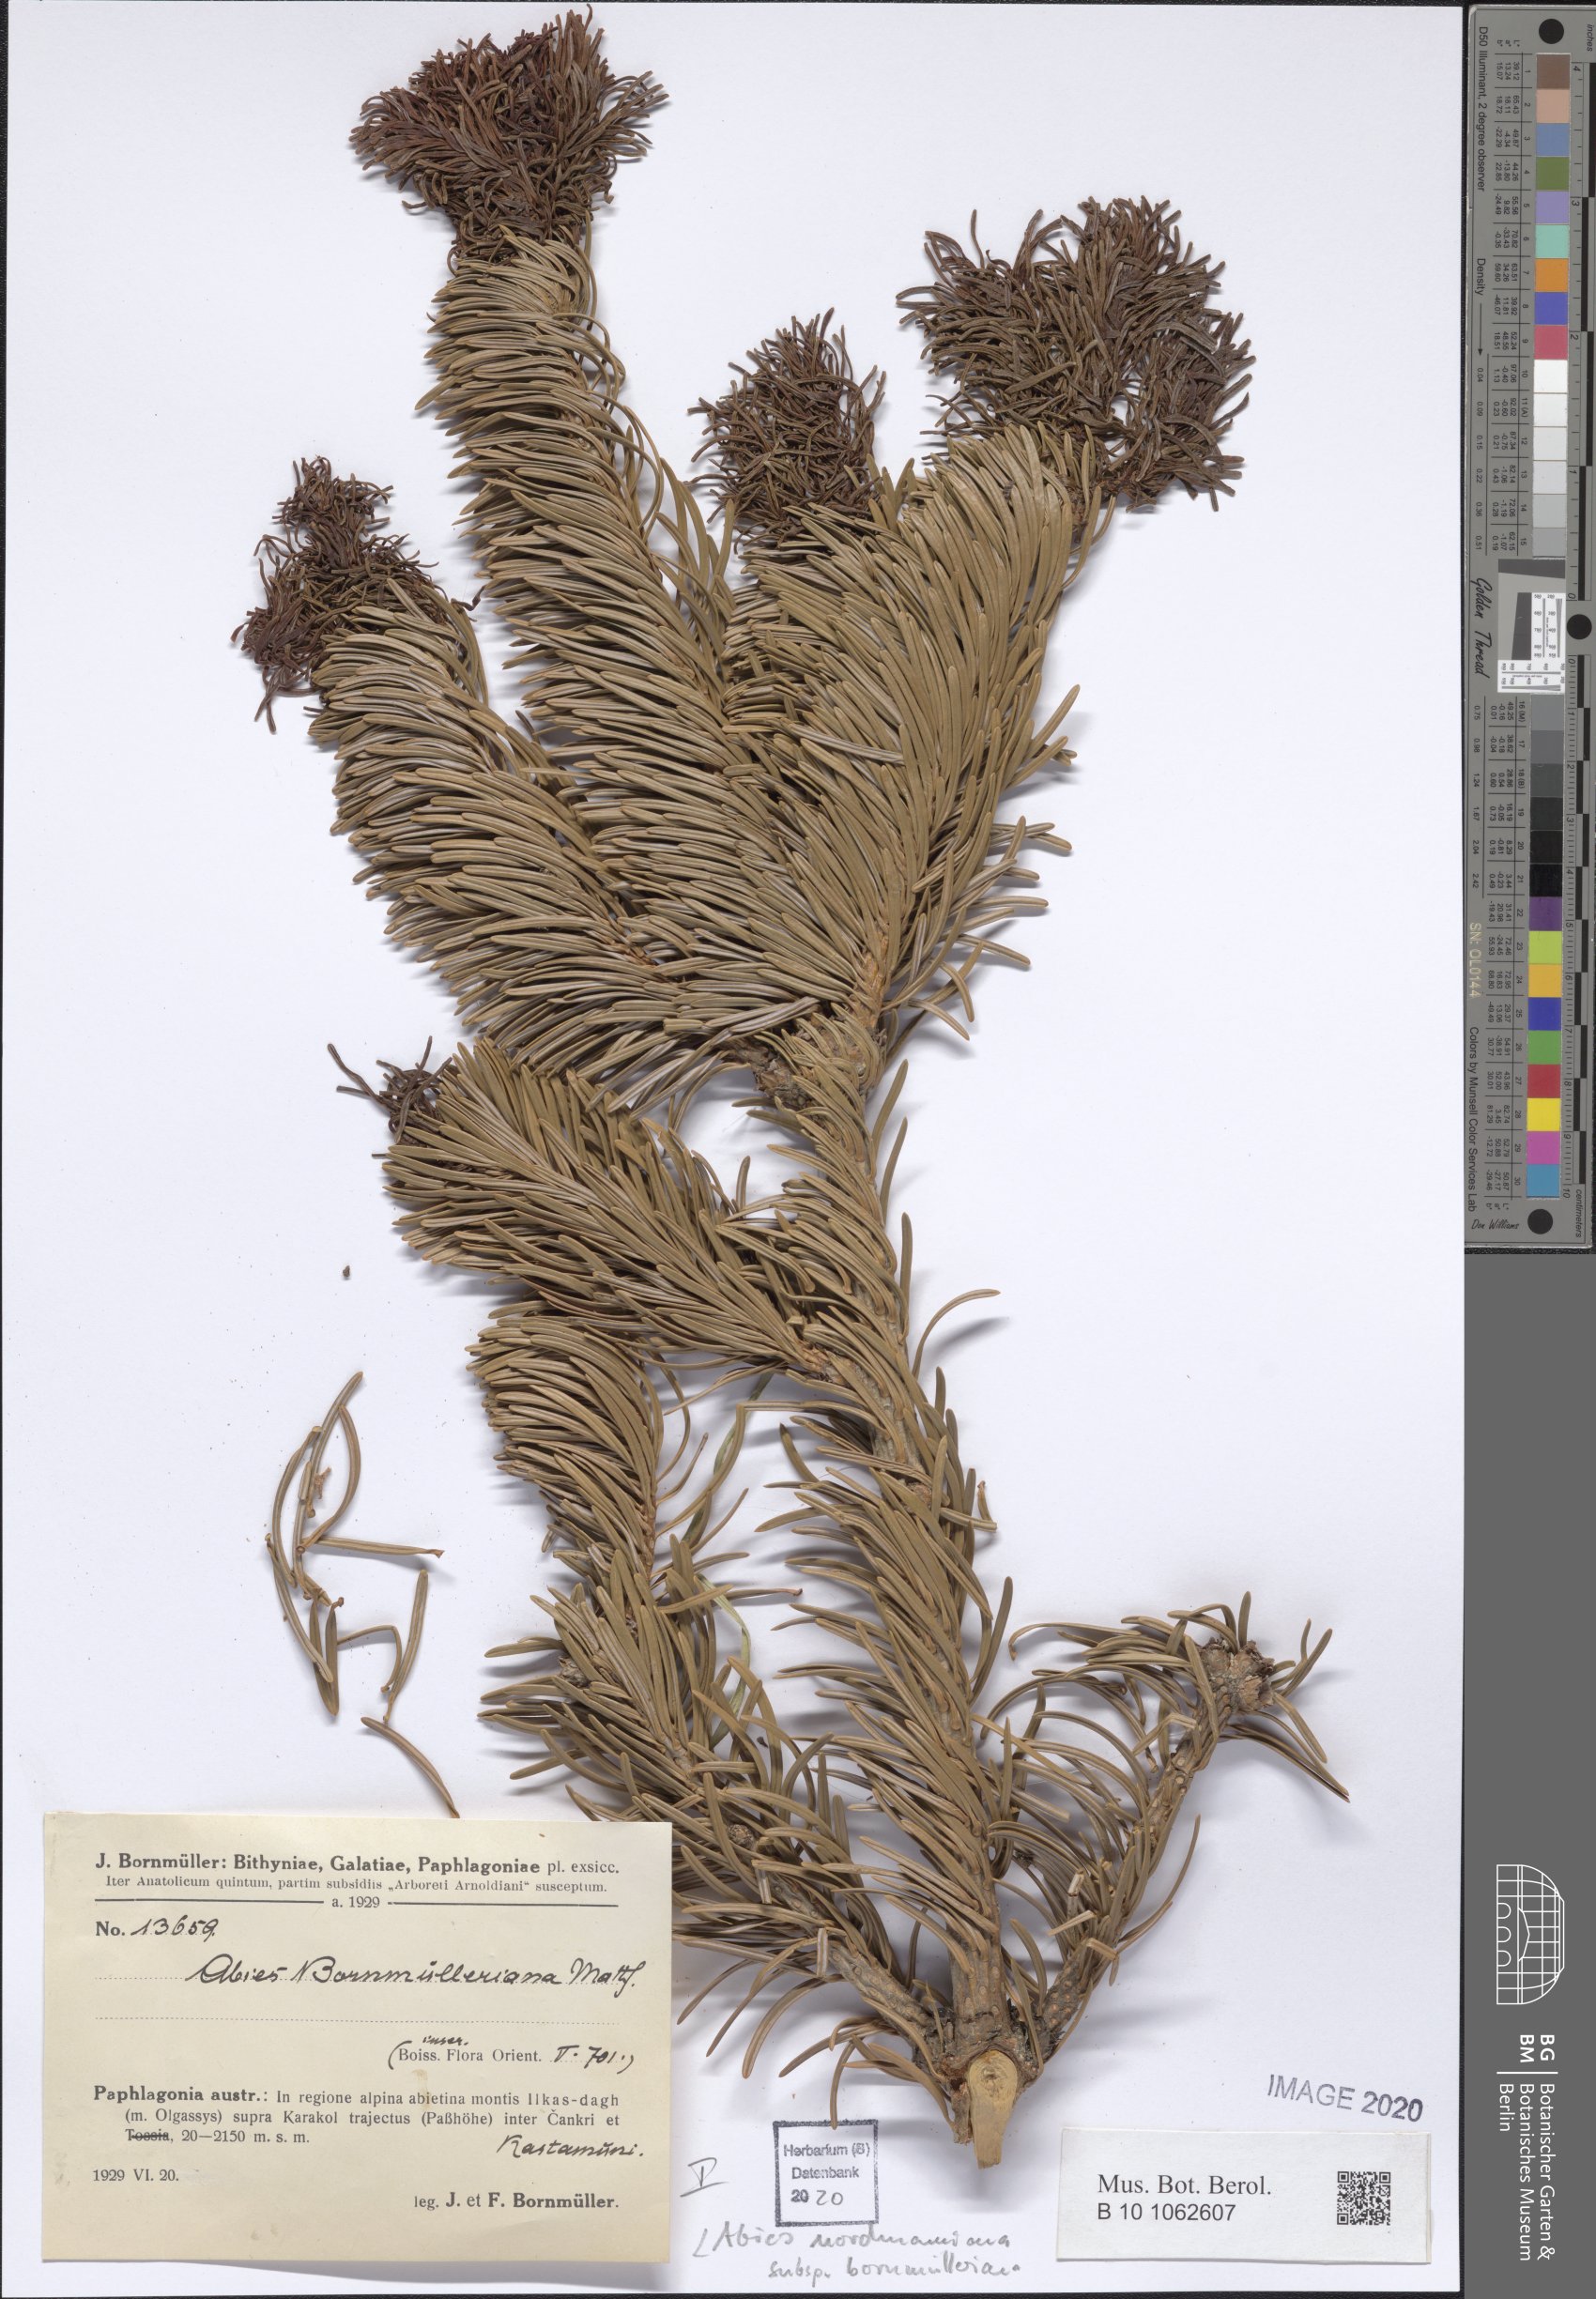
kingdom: Plantae
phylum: Tracheophyta
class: Pinopsida
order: Pinales
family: Pinaceae
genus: Abies
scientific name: Abies nordmanniana
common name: Caucasian fir
